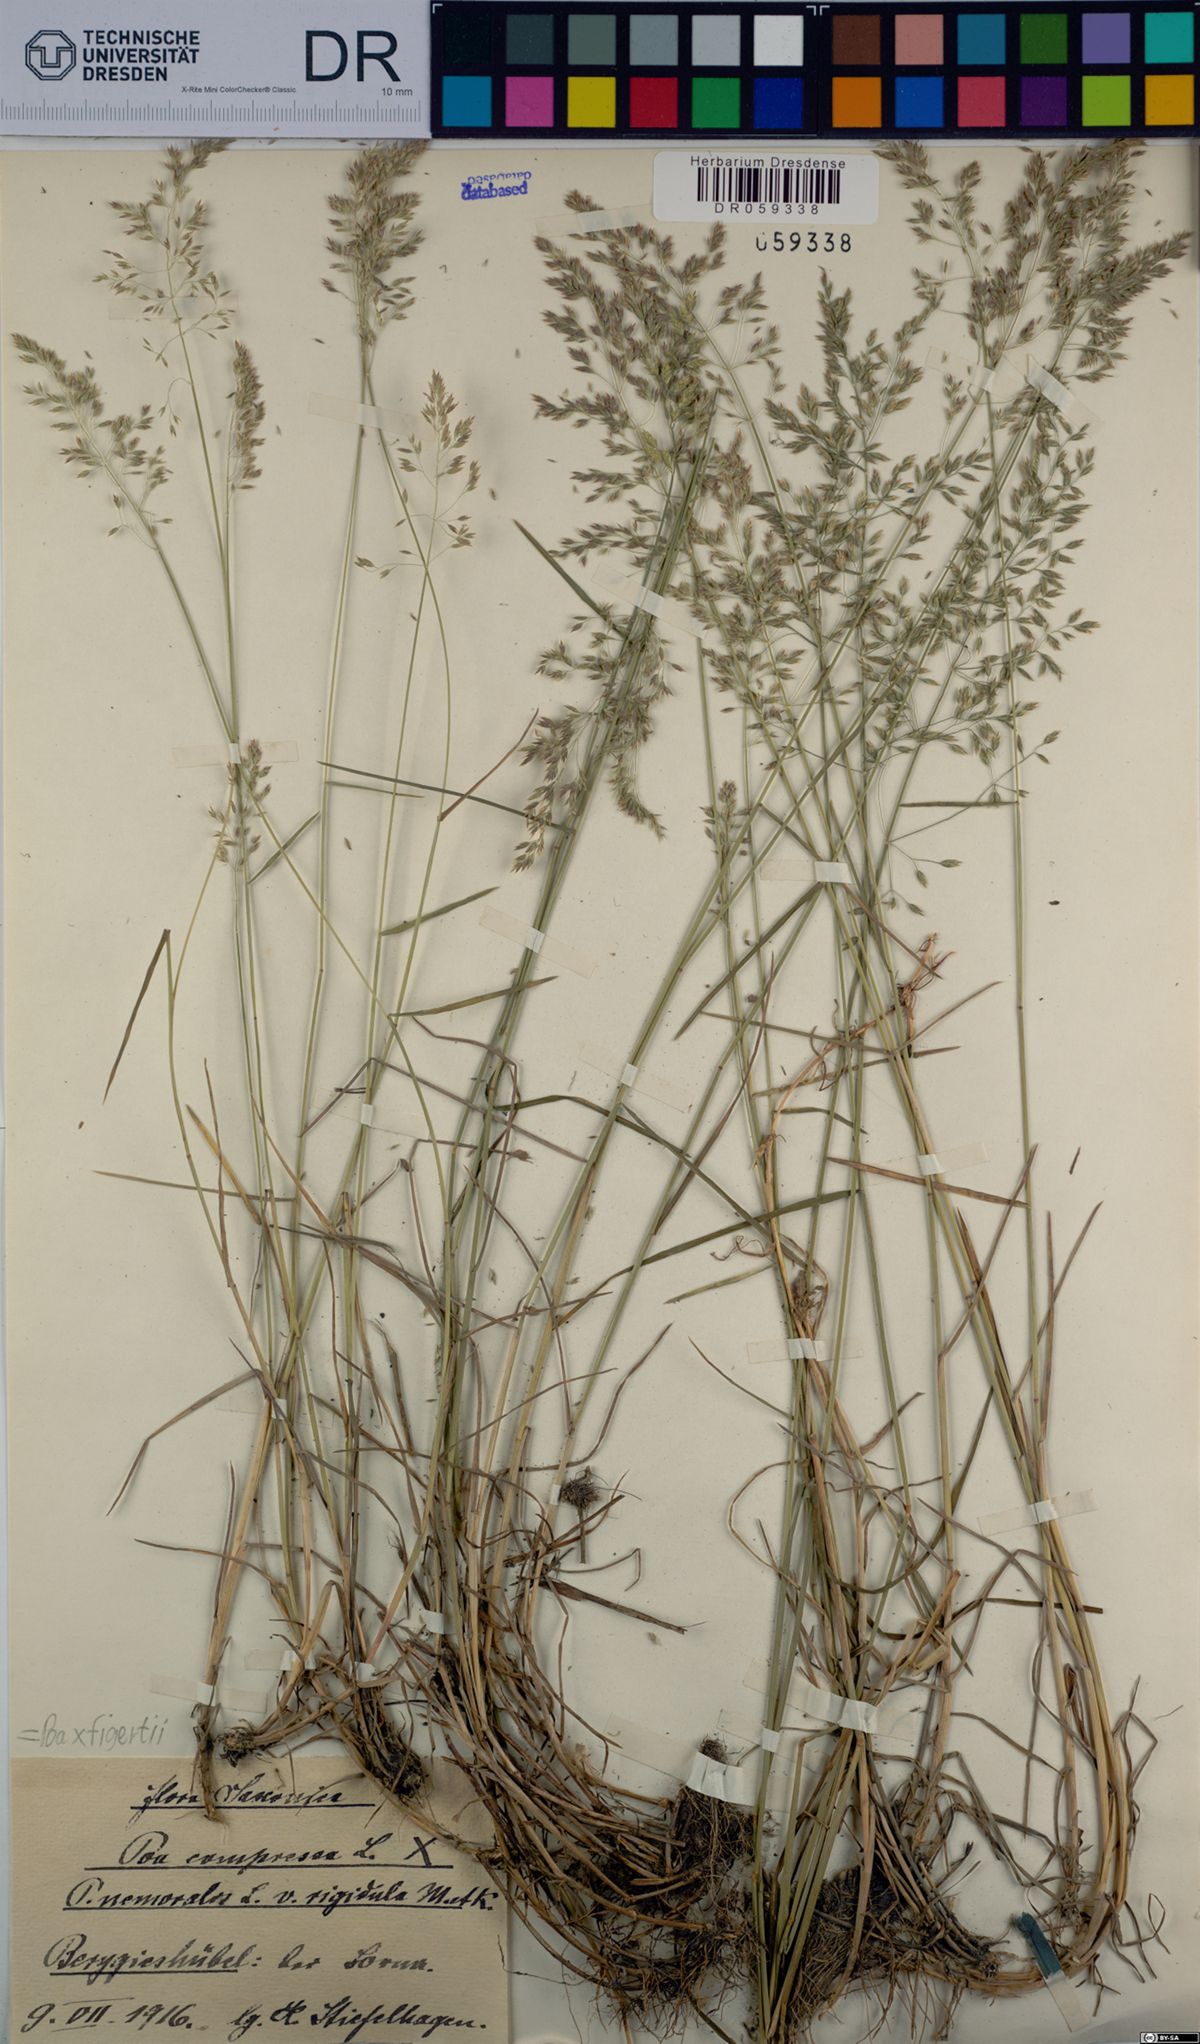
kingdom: Plantae
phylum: Tracheophyta
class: Liliopsida
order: Poales
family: Poaceae
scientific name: Poaceae
